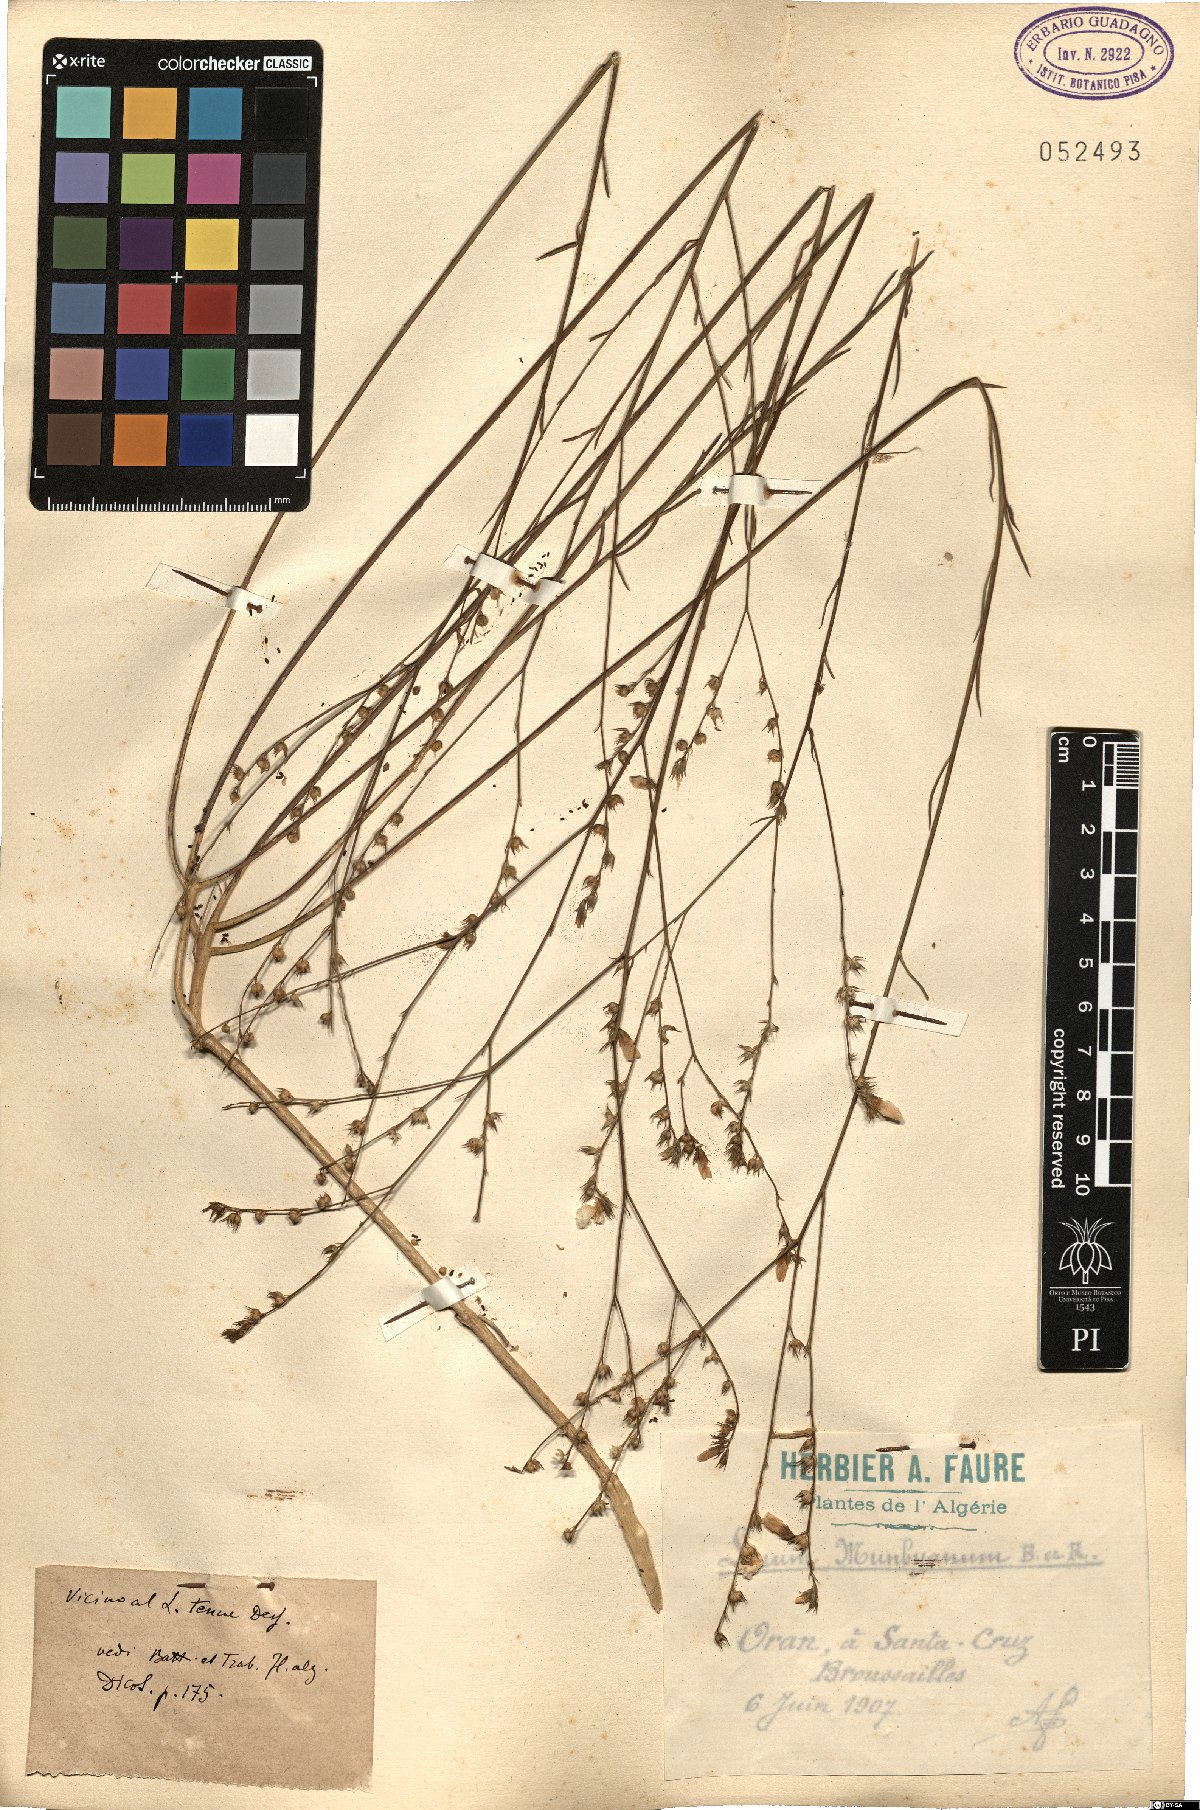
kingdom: Plantae
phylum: Tracheophyta
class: Magnoliopsida
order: Malpighiales
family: Linaceae
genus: Linum
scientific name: Linum tenue
